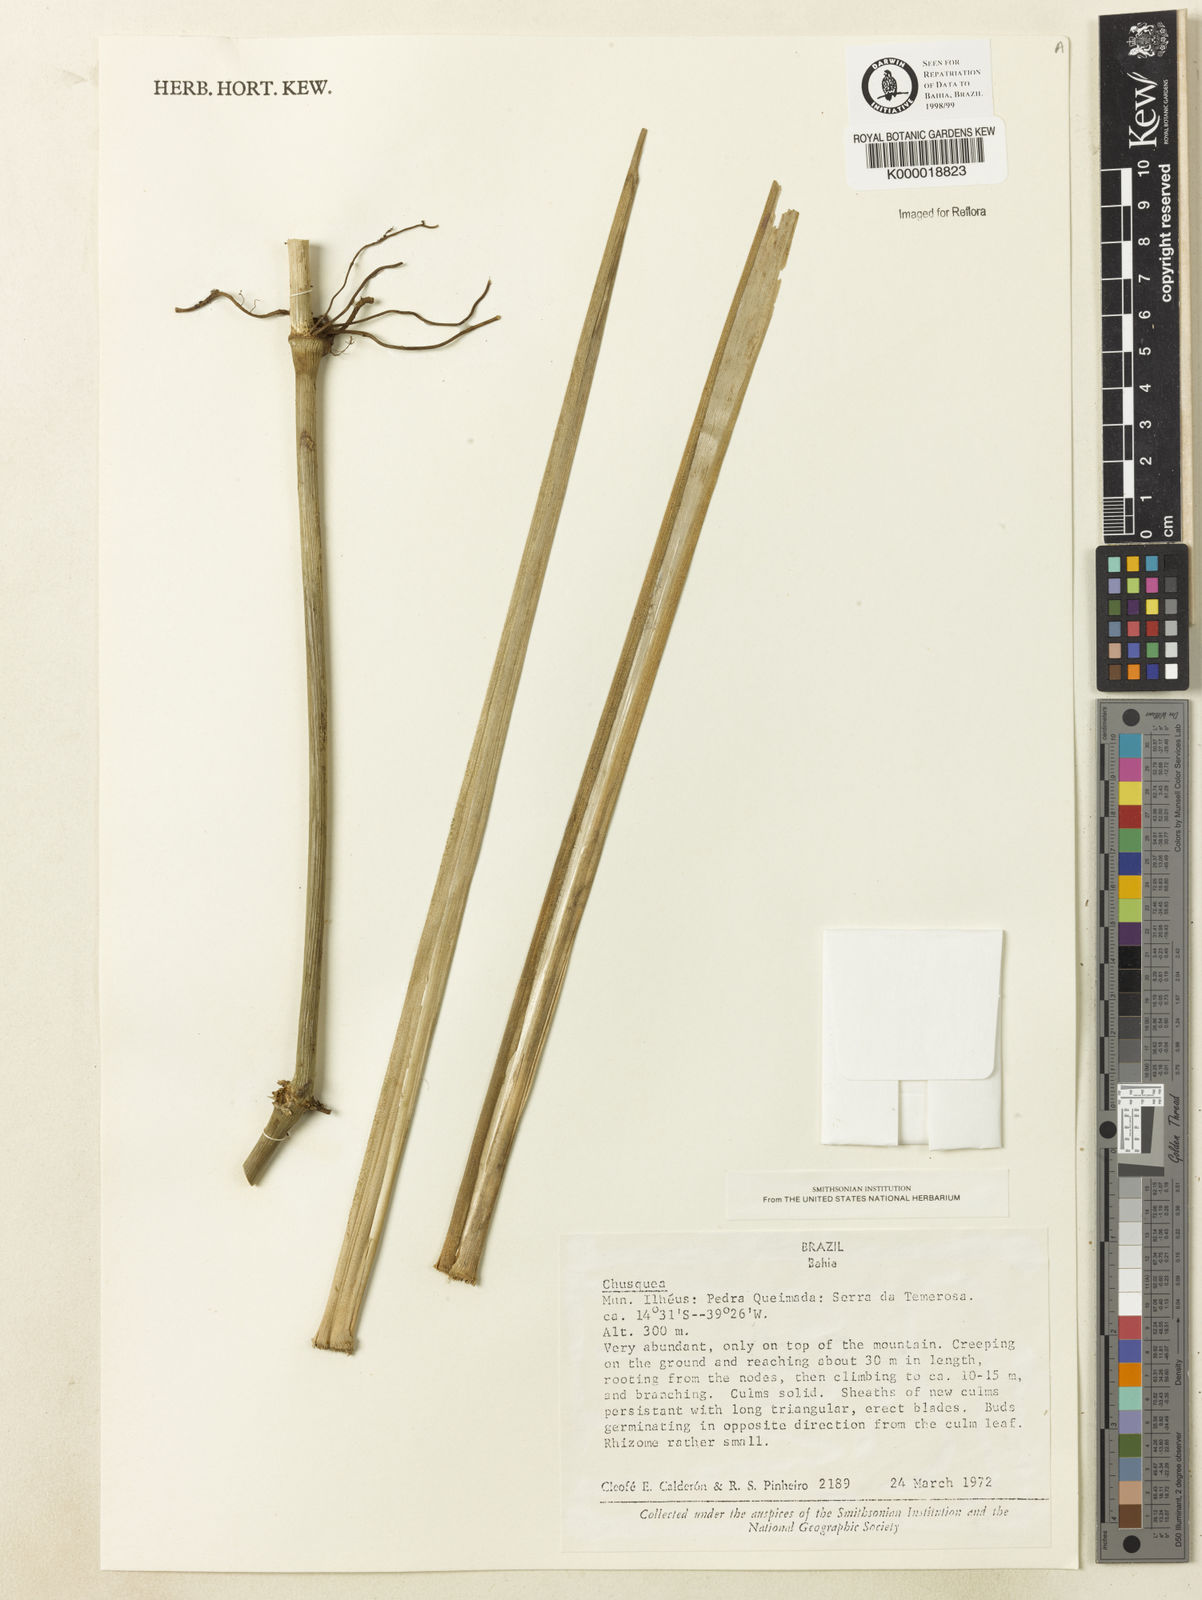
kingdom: Plantae
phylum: Tracheophyta
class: Liliopsida
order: Poales
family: Poaceae
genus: Chusquea
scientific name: Chusquea
